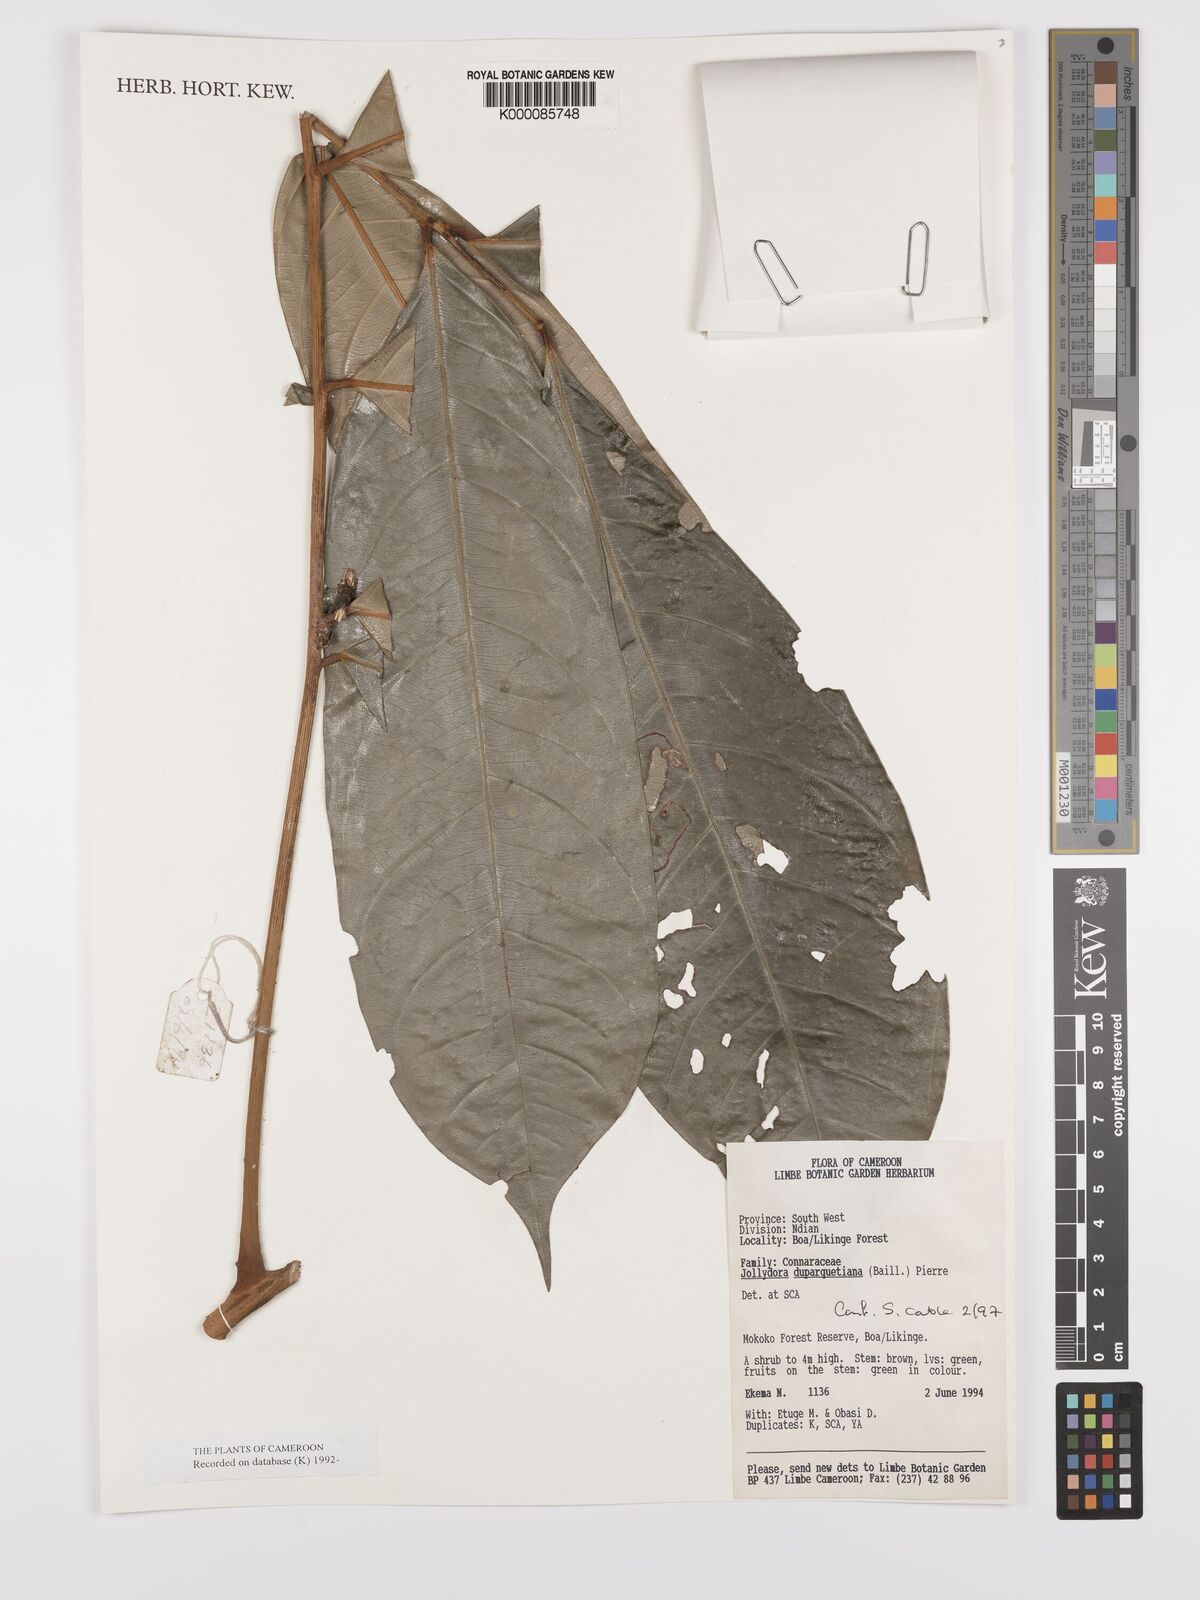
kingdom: Plantae
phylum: Tracheophyta
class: Magnoliopsida
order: Oxalidales
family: Connaraceae
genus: Jollydora
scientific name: Jollydora duparquetiana
